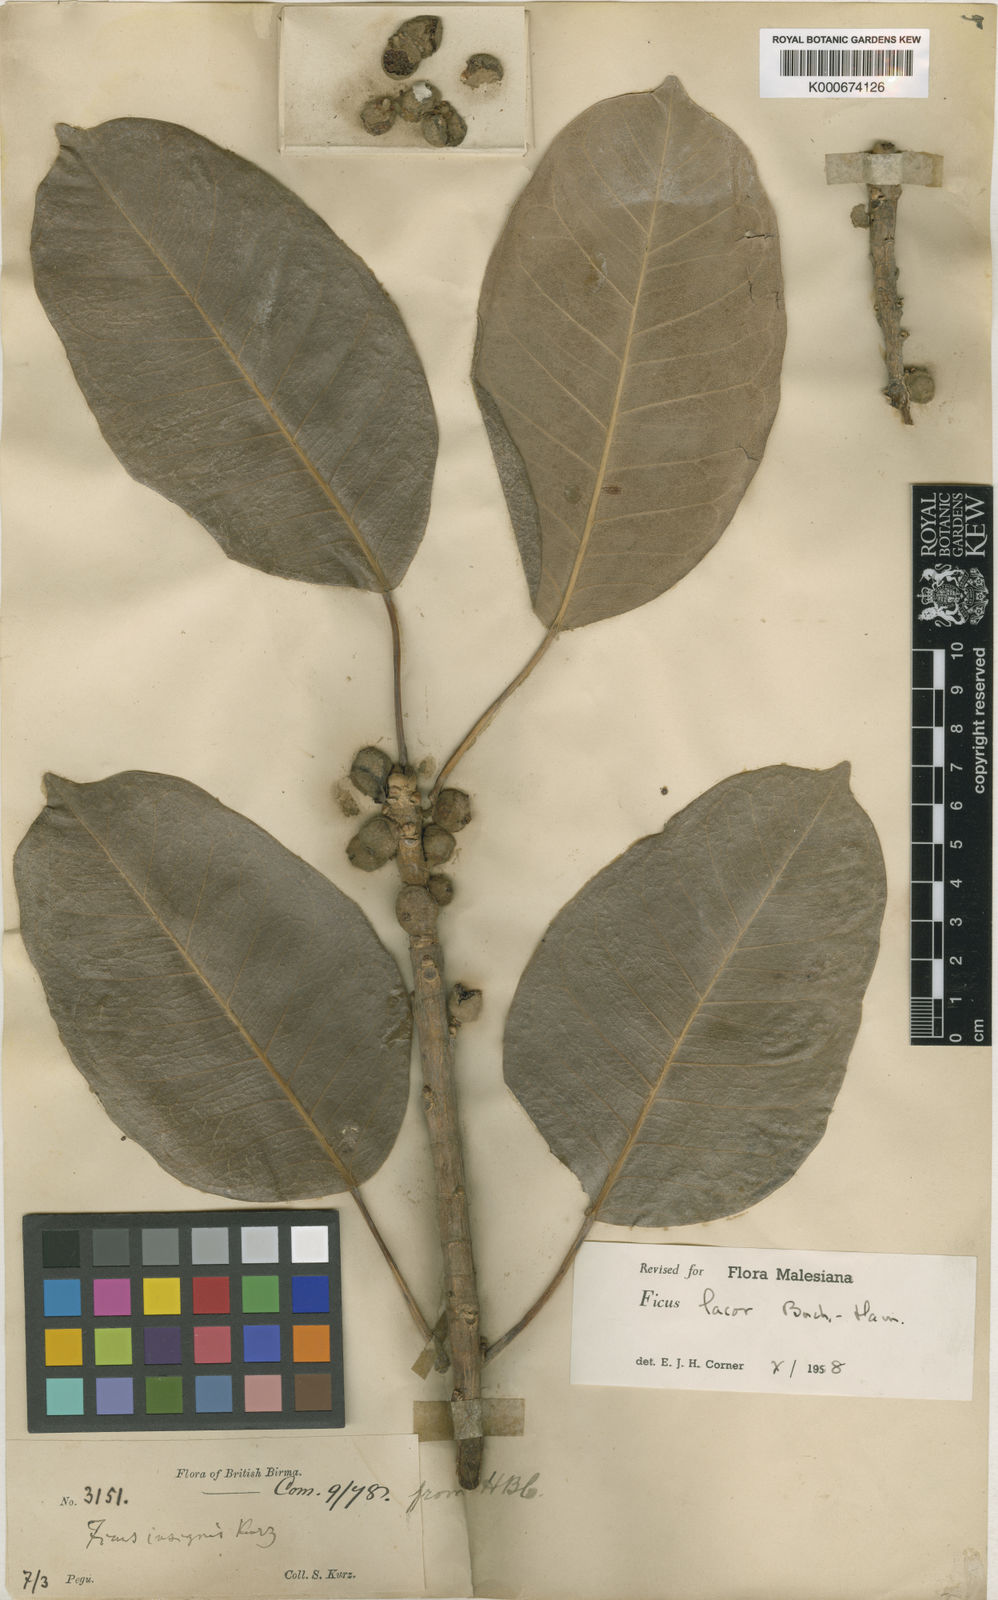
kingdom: Plantae
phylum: Tracheophyta
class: Magnoliopsida
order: Rosales
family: Moraceae
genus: Ficus
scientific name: Ficus lacor
